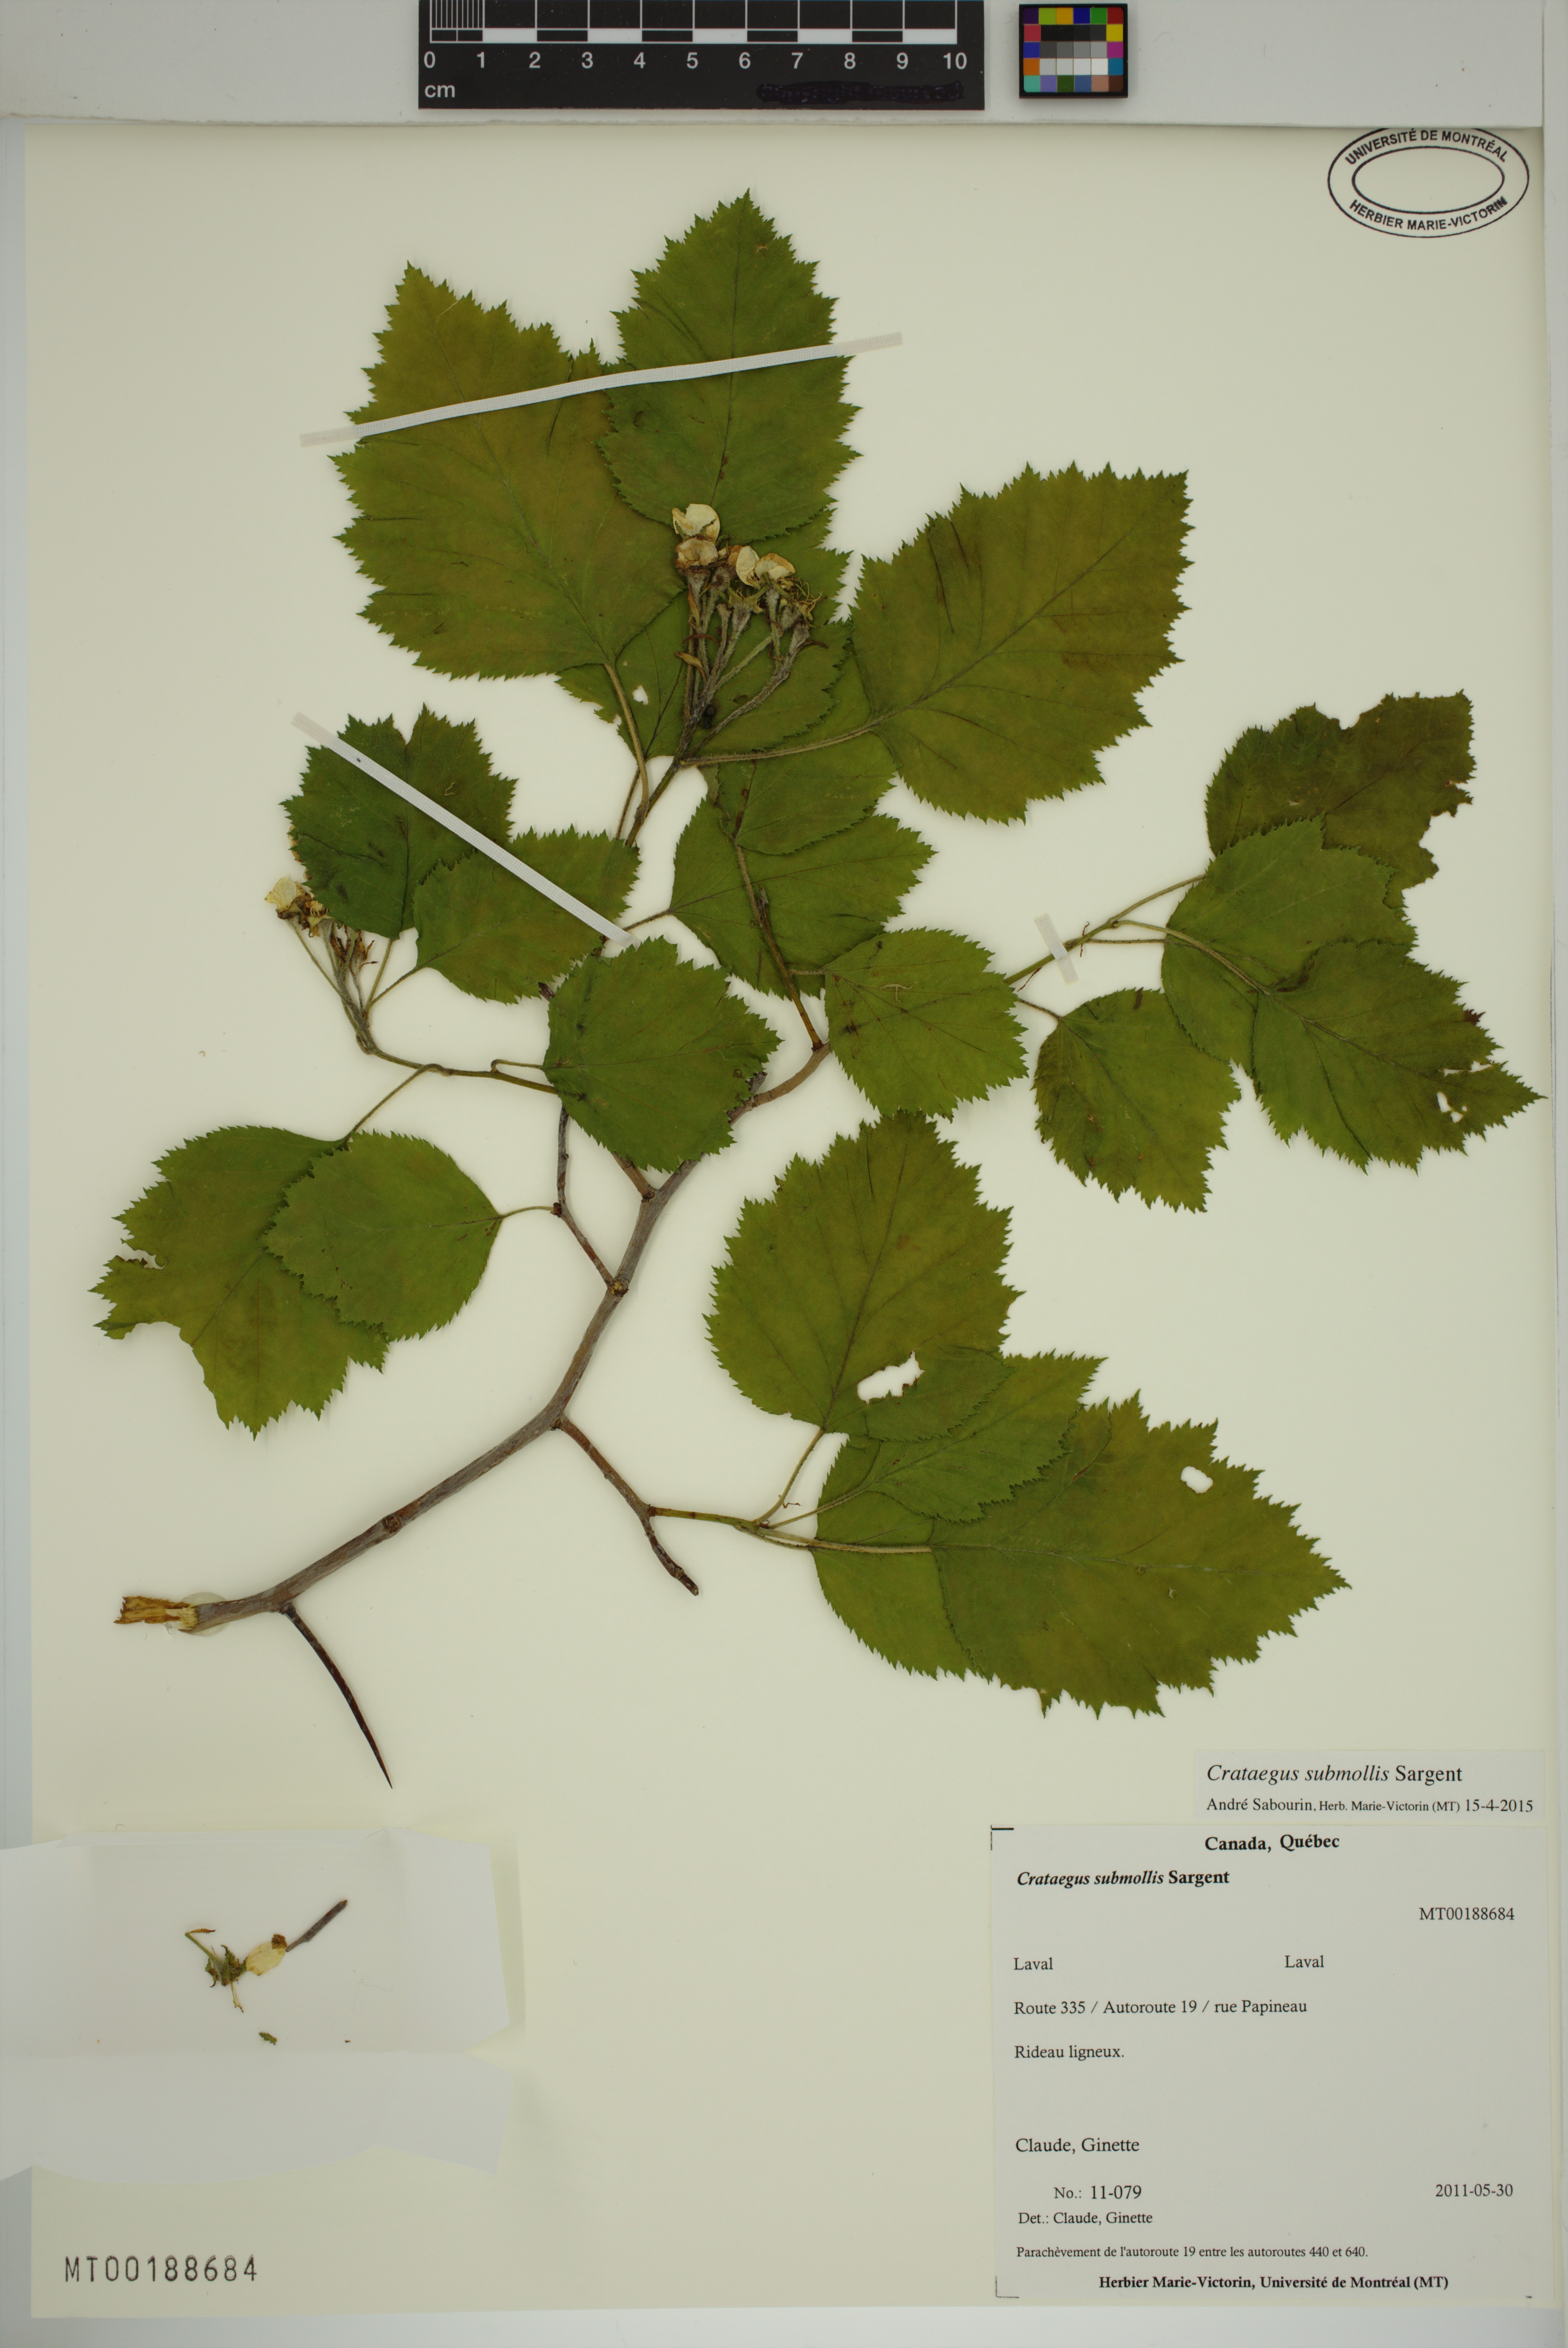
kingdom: Plantae
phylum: Tracheophyta
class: Magnoliopsida
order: Rosales
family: Rosaceae
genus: Crataegus
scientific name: Crataegus submollis
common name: Hairy cockspurthorn
